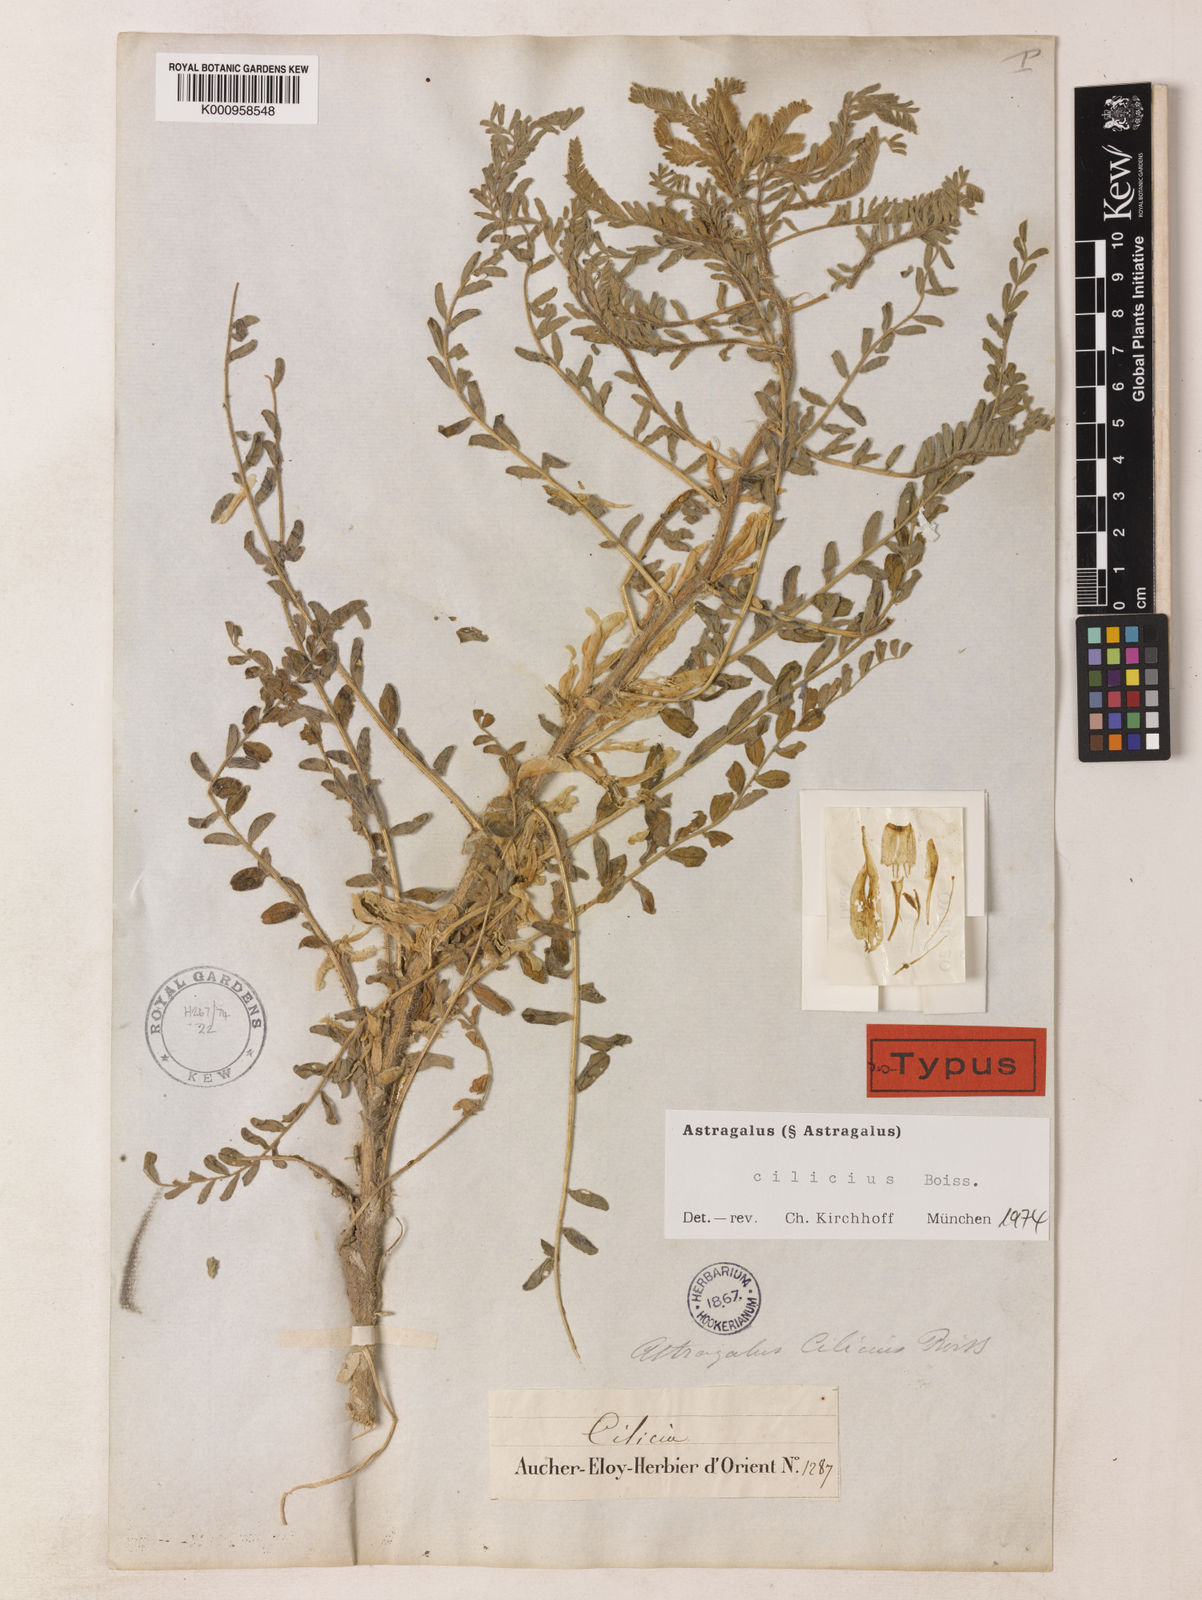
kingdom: Plantae
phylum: Tracheophyta
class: Magnoliopsida
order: Fabales
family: Fabaceae
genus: Astragalus
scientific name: Astragalus cilicius
